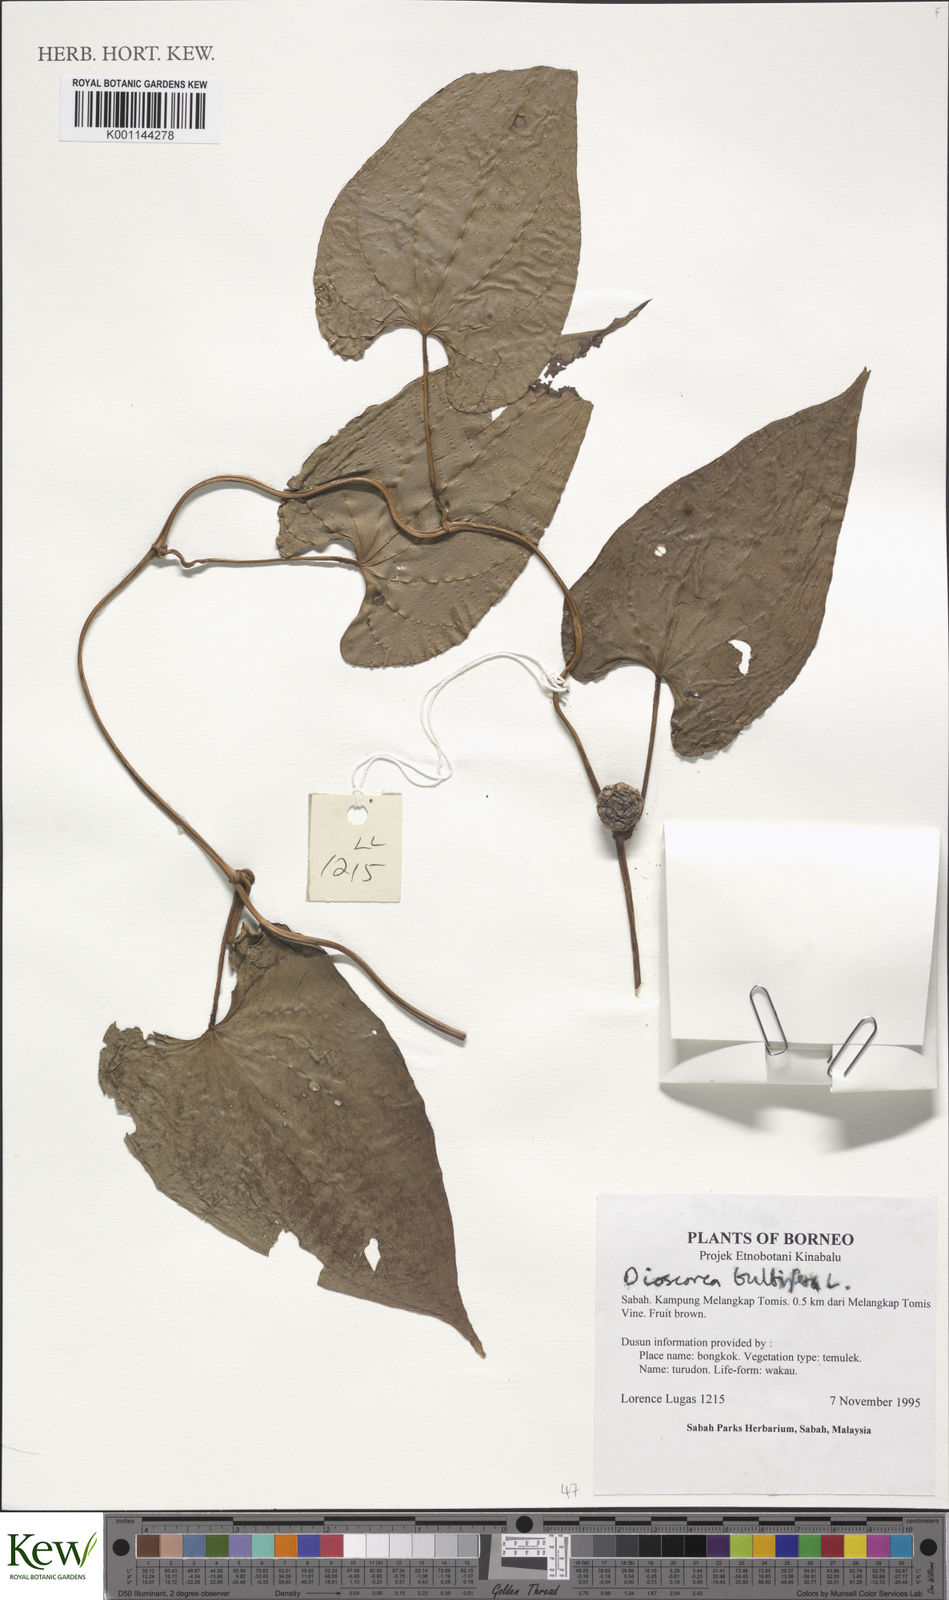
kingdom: Plantae
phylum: Tracheophyta
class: Liliopsida
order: Dioscoreales
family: Dioscoreaceae
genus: Dioscorea
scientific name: Dioscorea bulbifera
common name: Air yam
